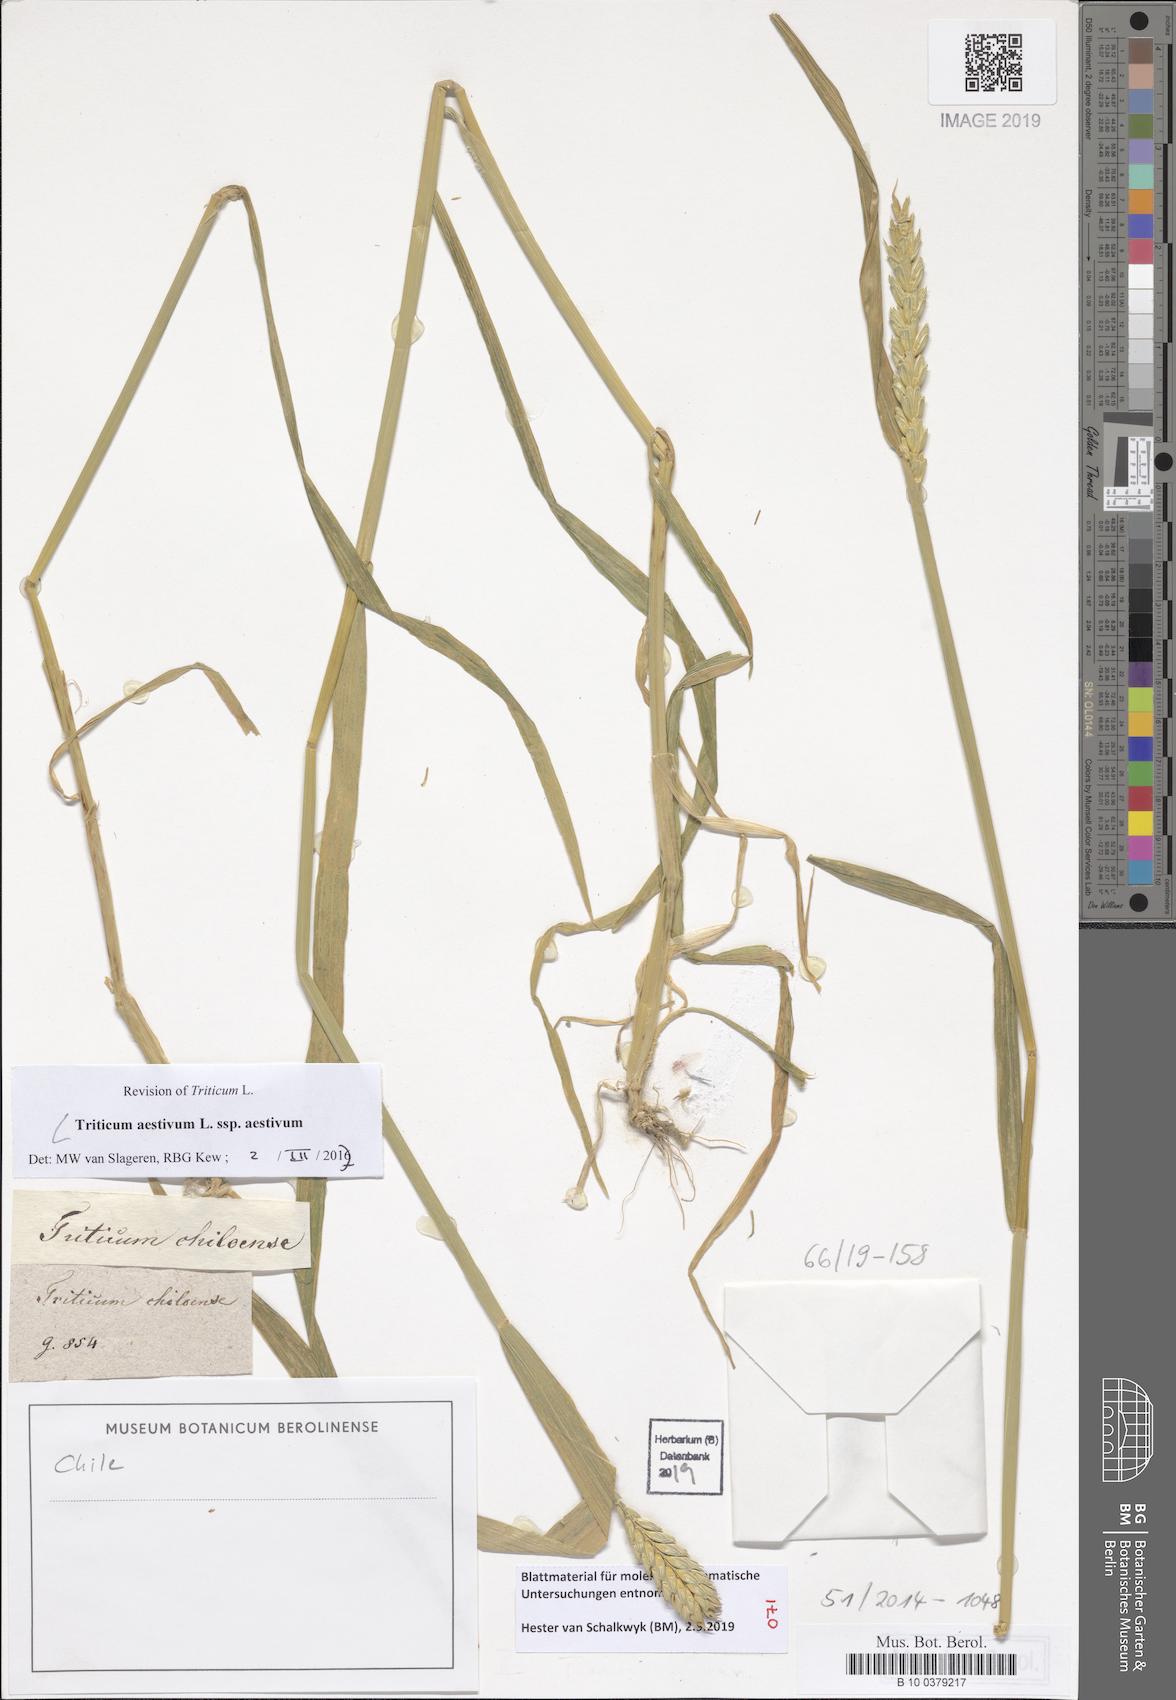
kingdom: Plantae
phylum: Tracheophyta
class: Liliopsida
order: Poales
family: Poaceae
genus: Triticum
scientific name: Triticum aestivum
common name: Common wheat
